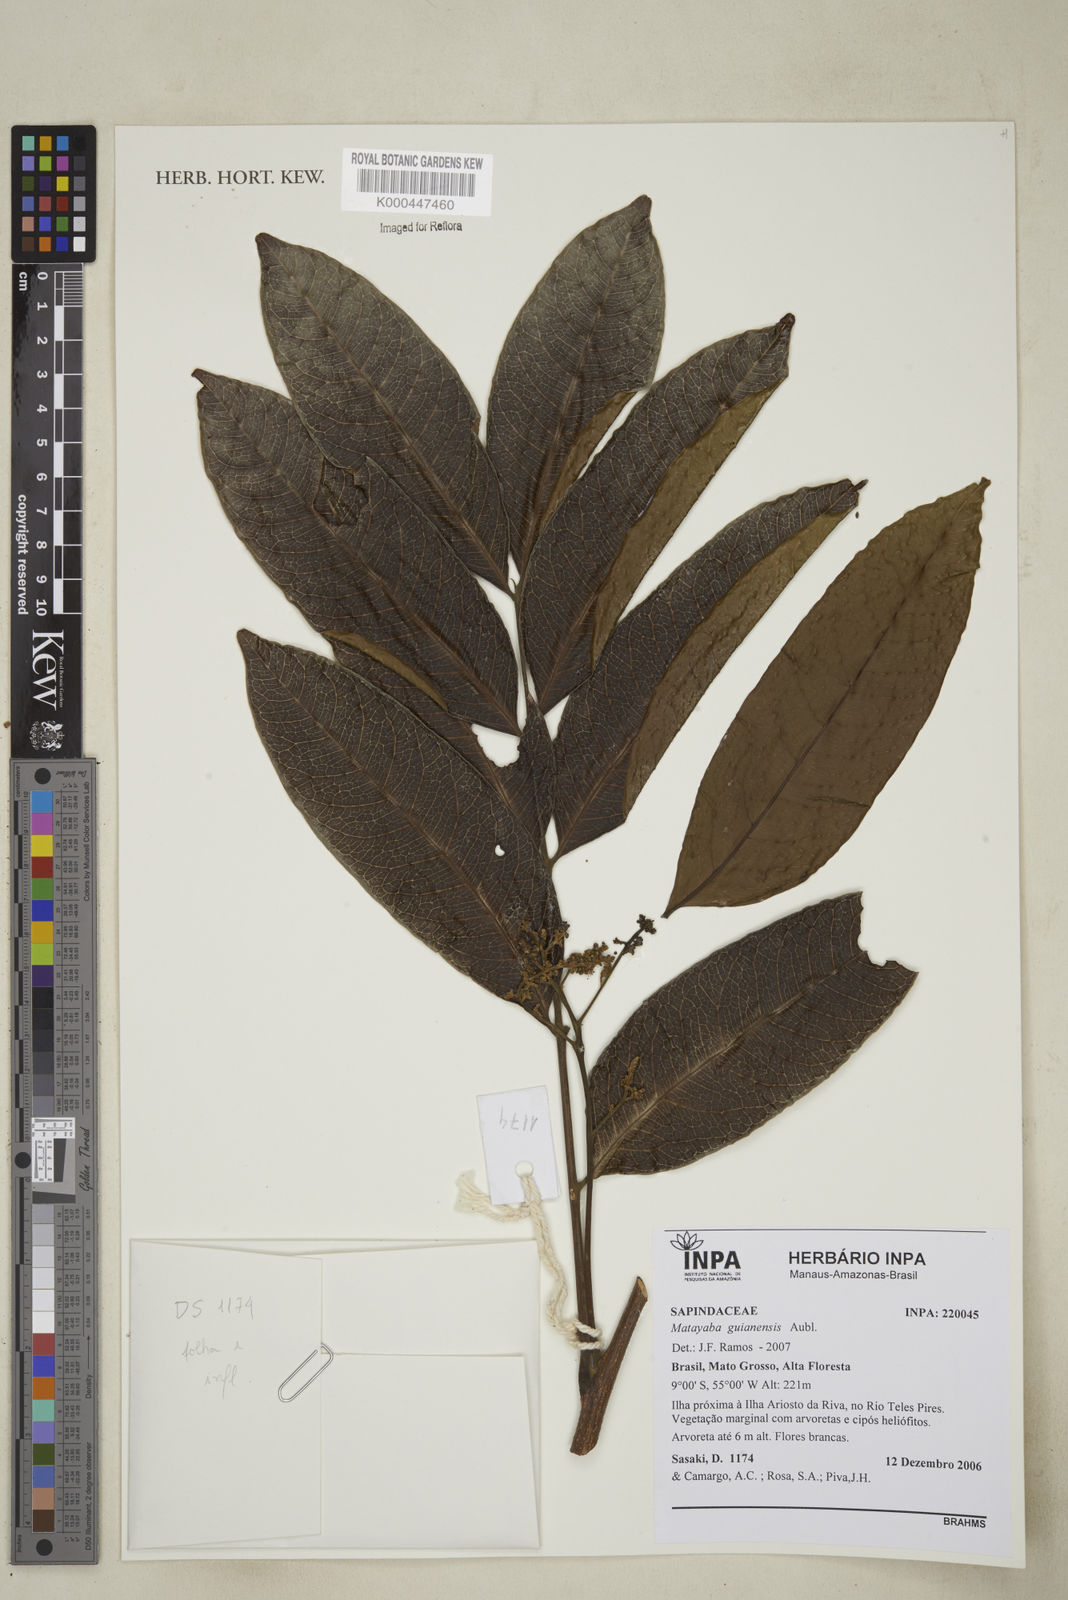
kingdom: Plantae
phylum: Tracheophyta
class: Magnoliopsida
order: Sapindales
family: Sapindaceae
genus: Matayba
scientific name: Matayba guianensis
